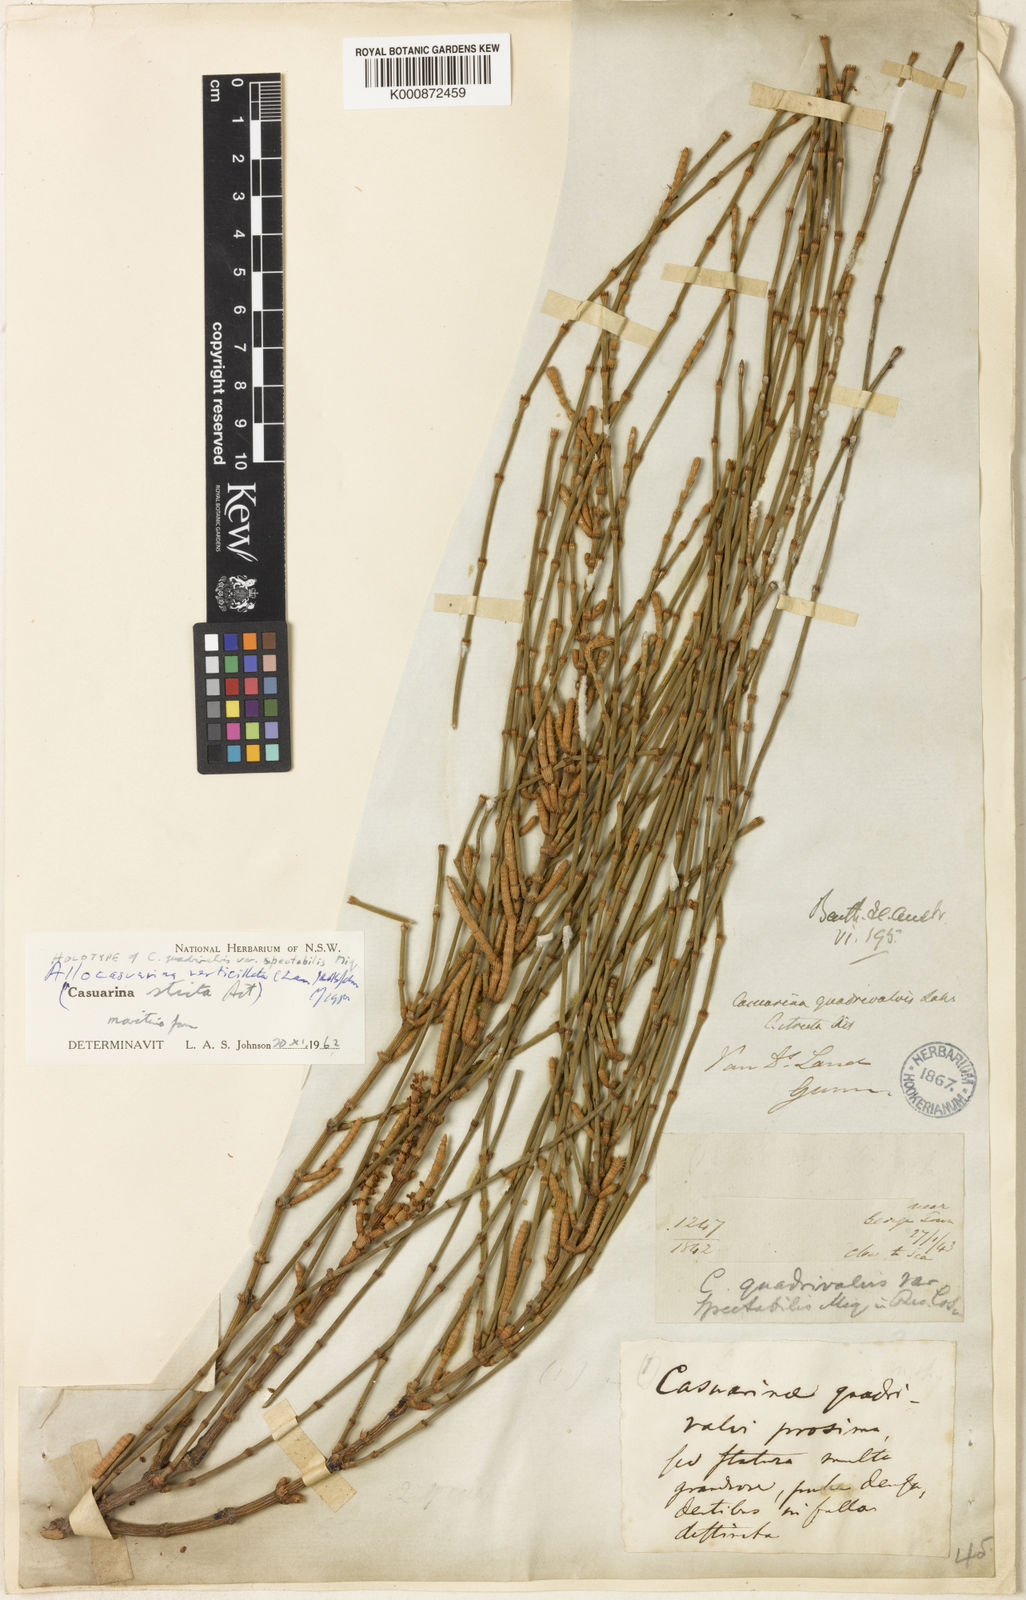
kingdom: Plantae
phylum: Tracheophyta
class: Magnoliopsida
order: Fagales
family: Casuarinaceae
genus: Allocasuarina
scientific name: Allocasuarina verticillata
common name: Drooping she-oak
